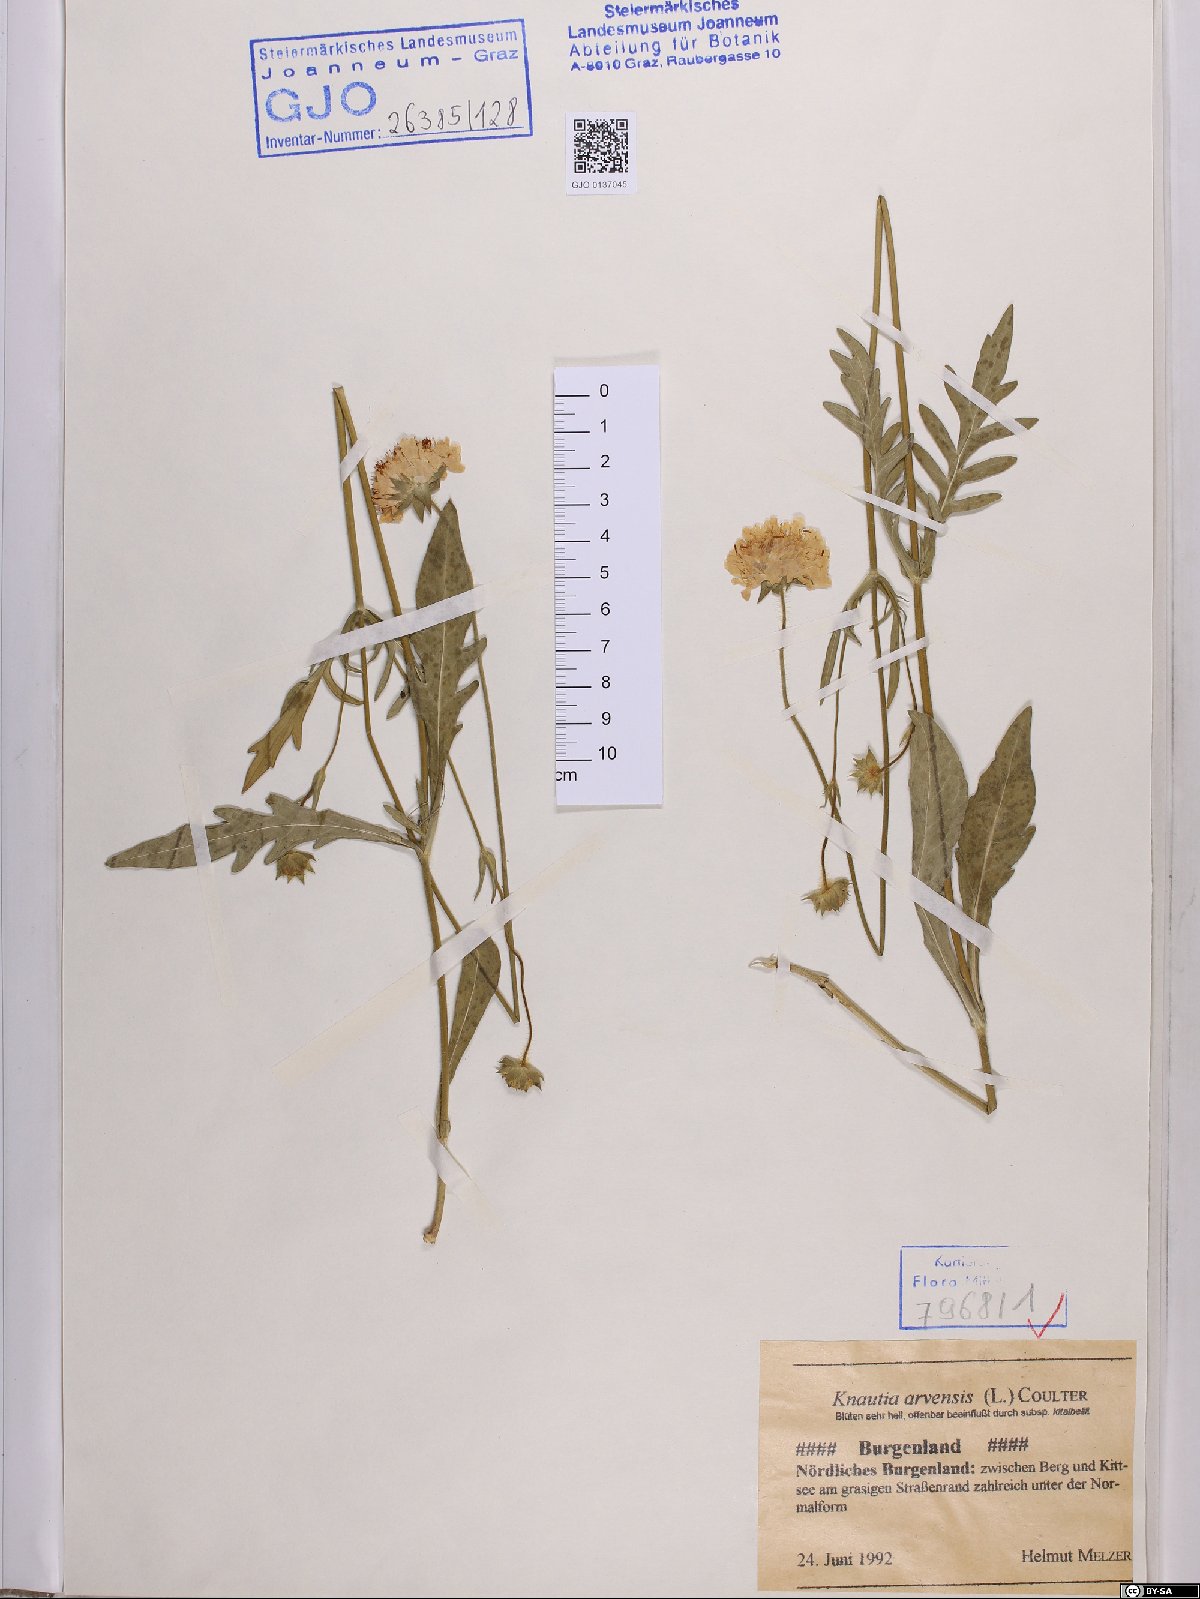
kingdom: Plantae
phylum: Tracheophyta
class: Magnoliopsida
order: Dipsacales
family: Caprifoliaceae
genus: Knautia
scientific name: Knautia arvensis
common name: Field scabiosa
